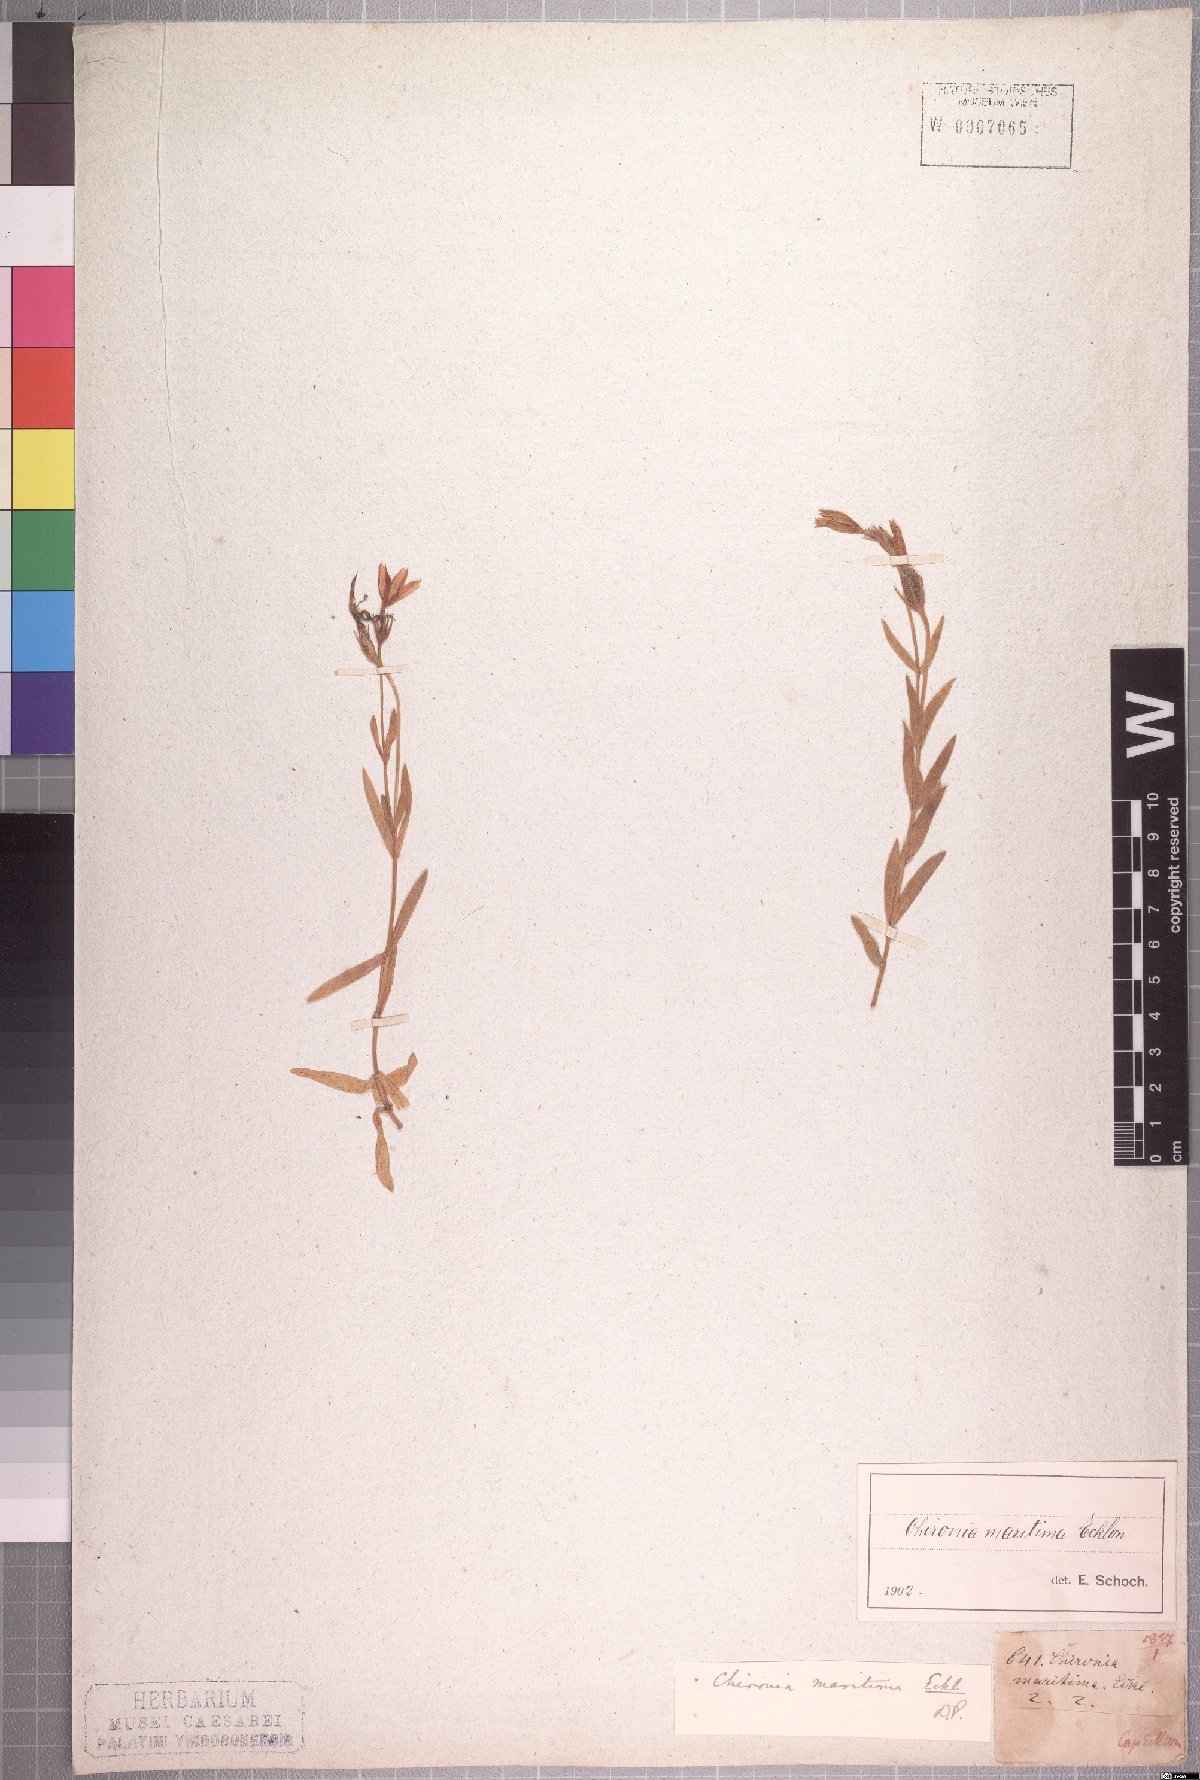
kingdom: Plantae
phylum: Tracheophyta
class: Magnoliopsida
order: Gentianales
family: Gentianaceae
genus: Chironia
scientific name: Chironia decumbens
